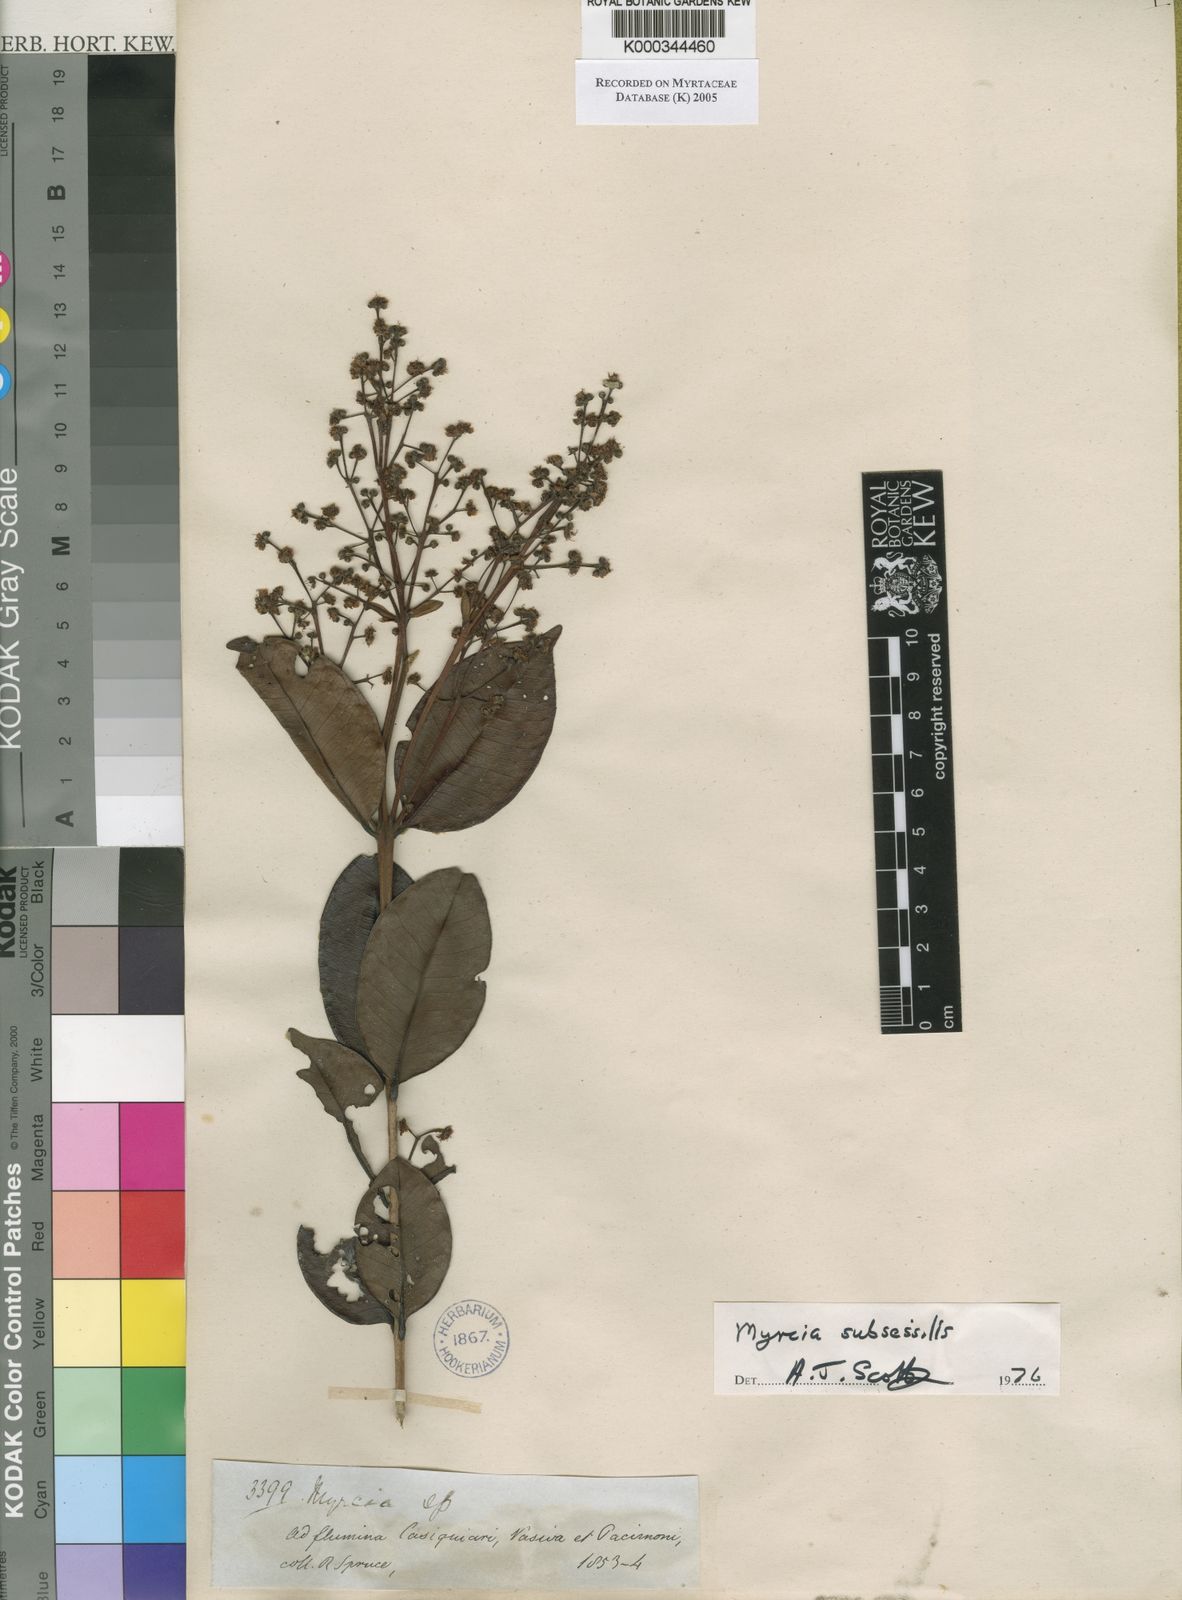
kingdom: Plantae
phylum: Tracheophyta
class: Magnoliopsida
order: Myrtales
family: Myrtaceae
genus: Myrcia
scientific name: Myrcia subsessilis
